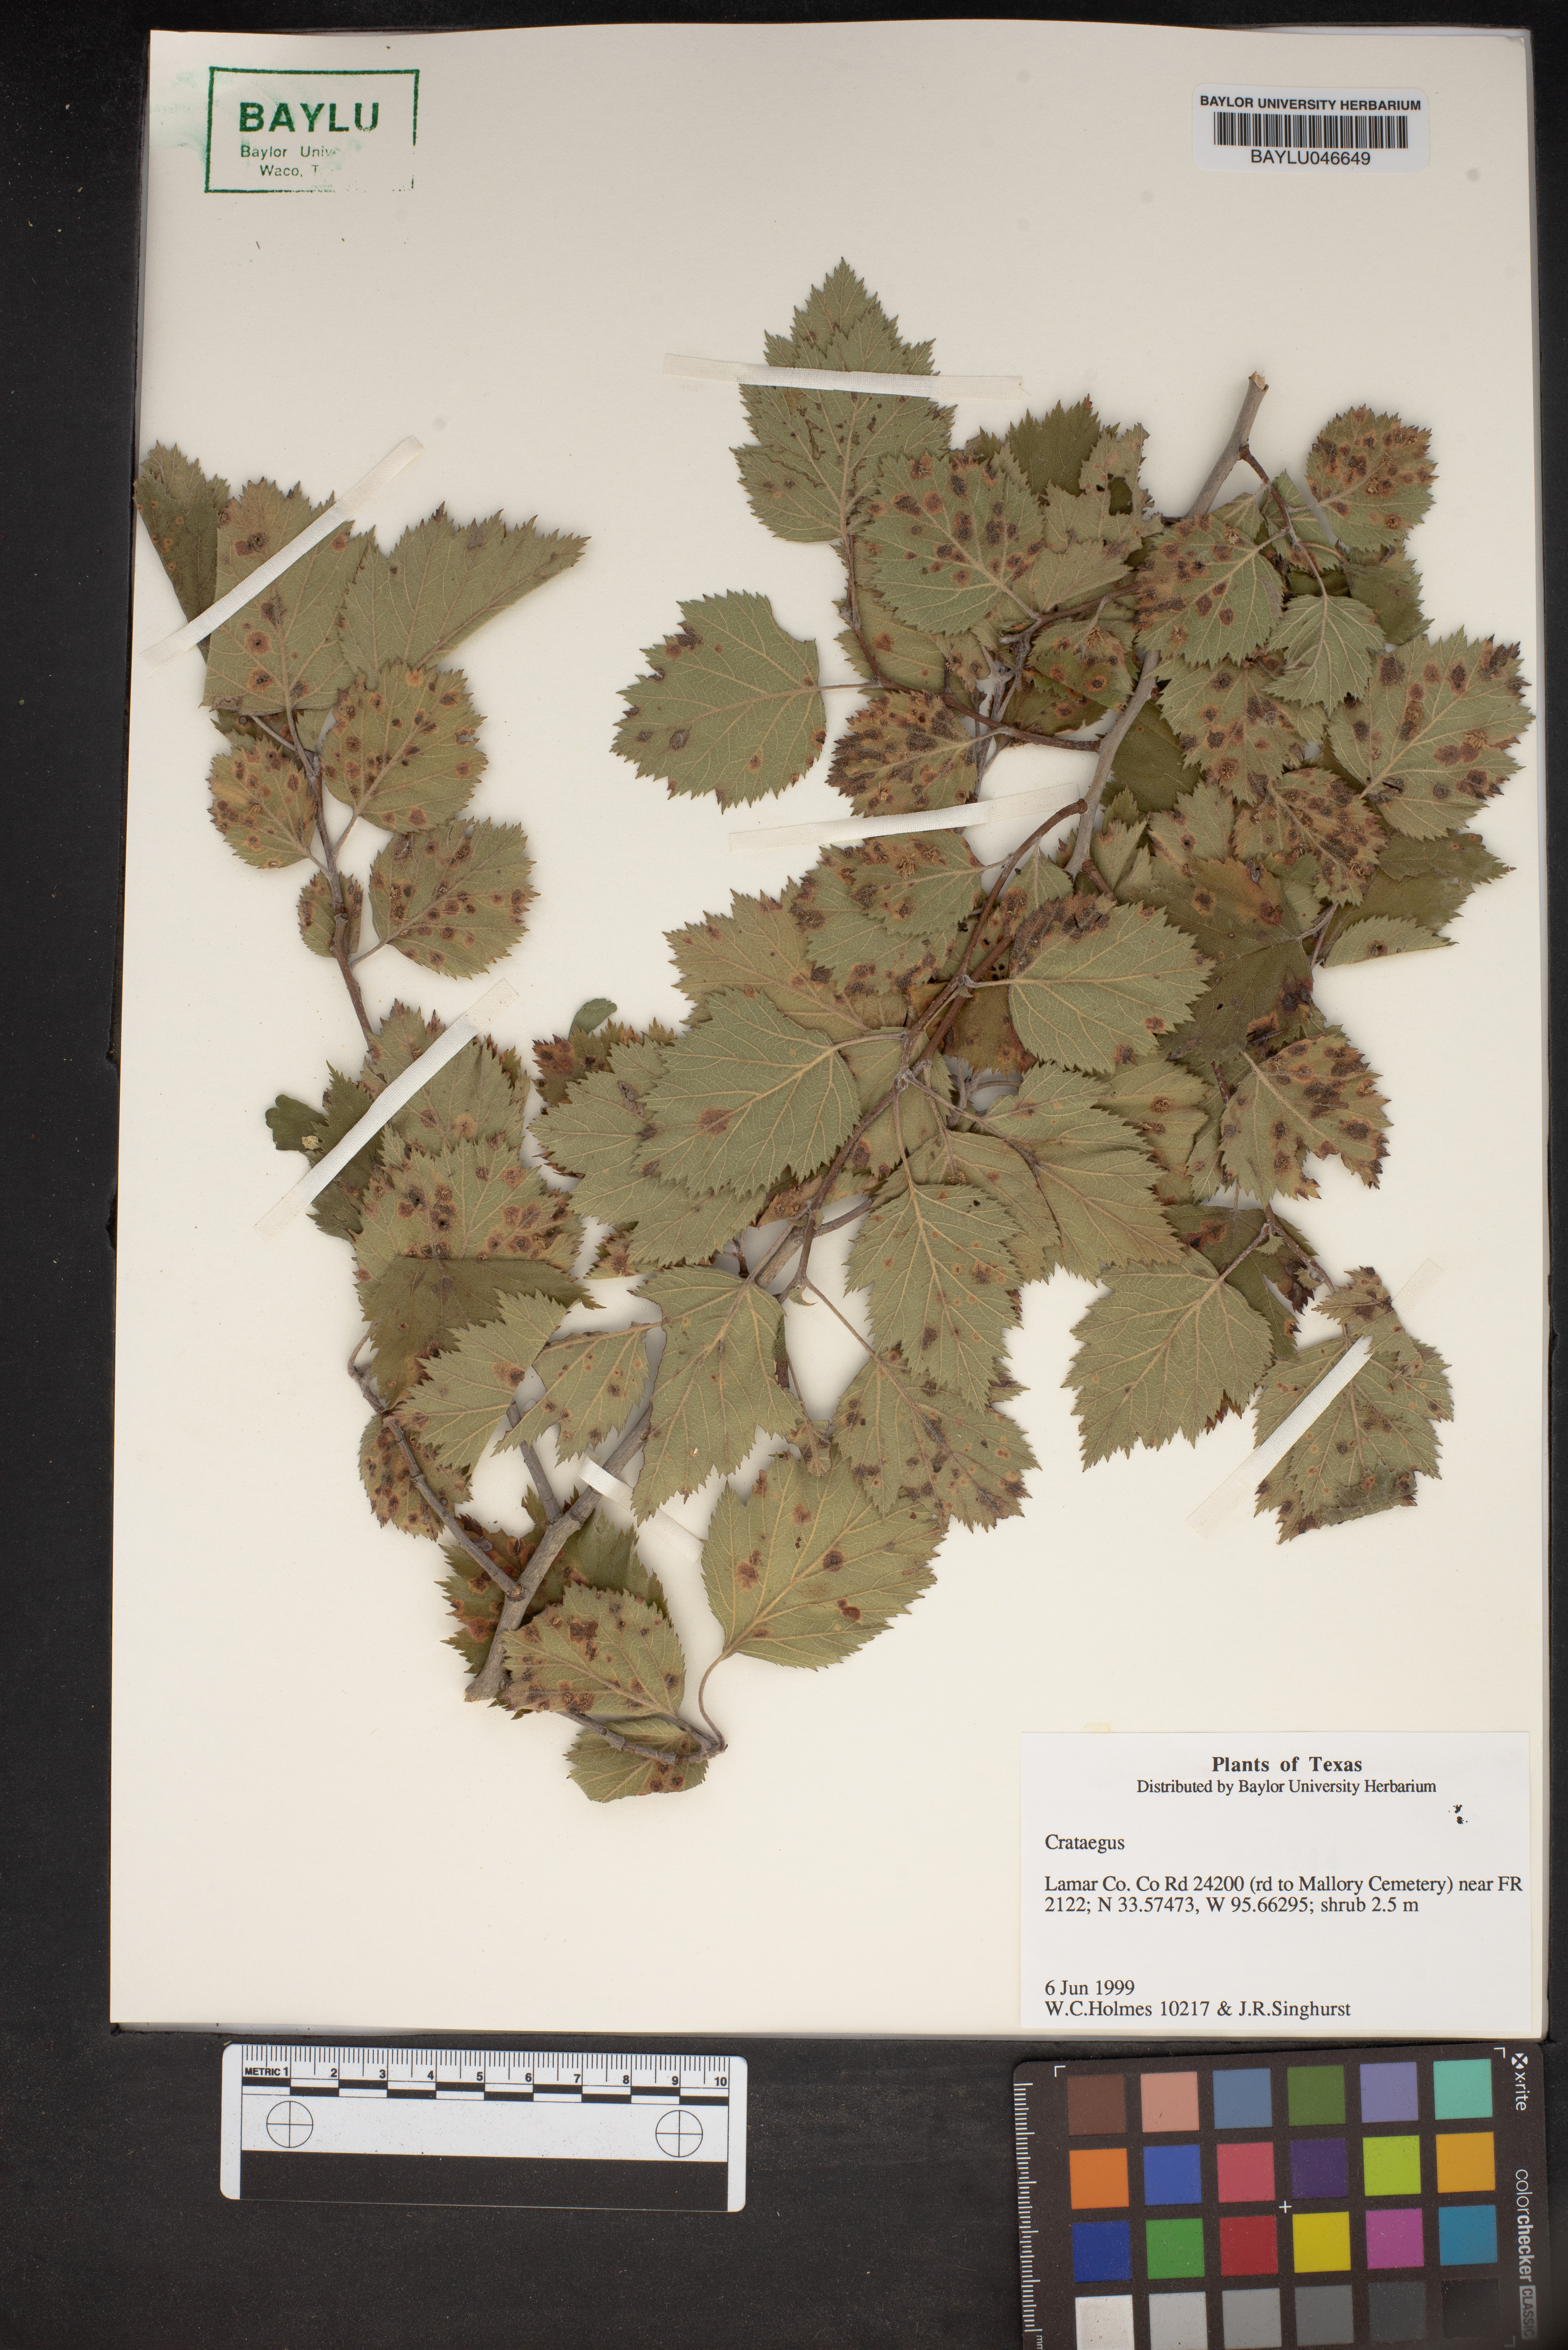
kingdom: Plantae
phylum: Tracheophyta
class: Magnoliopsida
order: Rosales
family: Rosaceae
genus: Crataegus
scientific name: Crataegus
